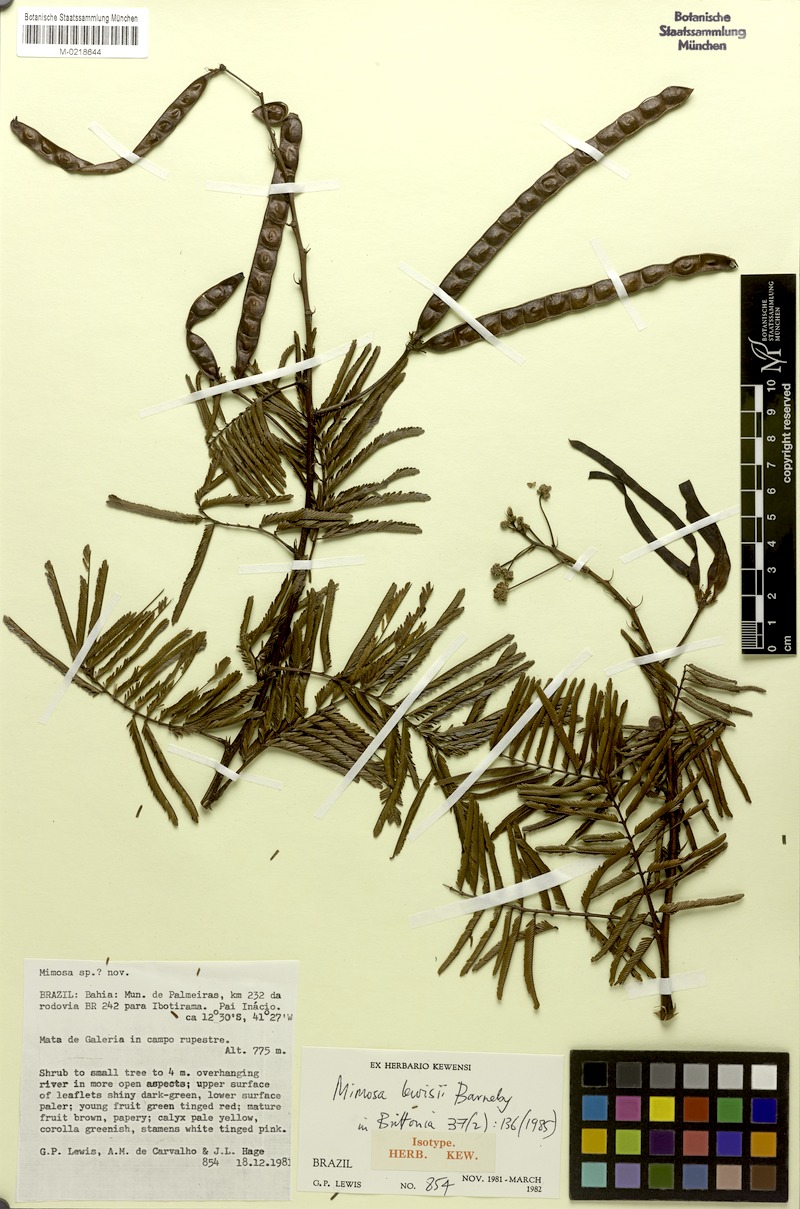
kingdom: Plantae
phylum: Tracheophyta
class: Magnoliopsida
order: Fabales
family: Fabaceae
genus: Mimosa
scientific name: Mimosa lewisii
